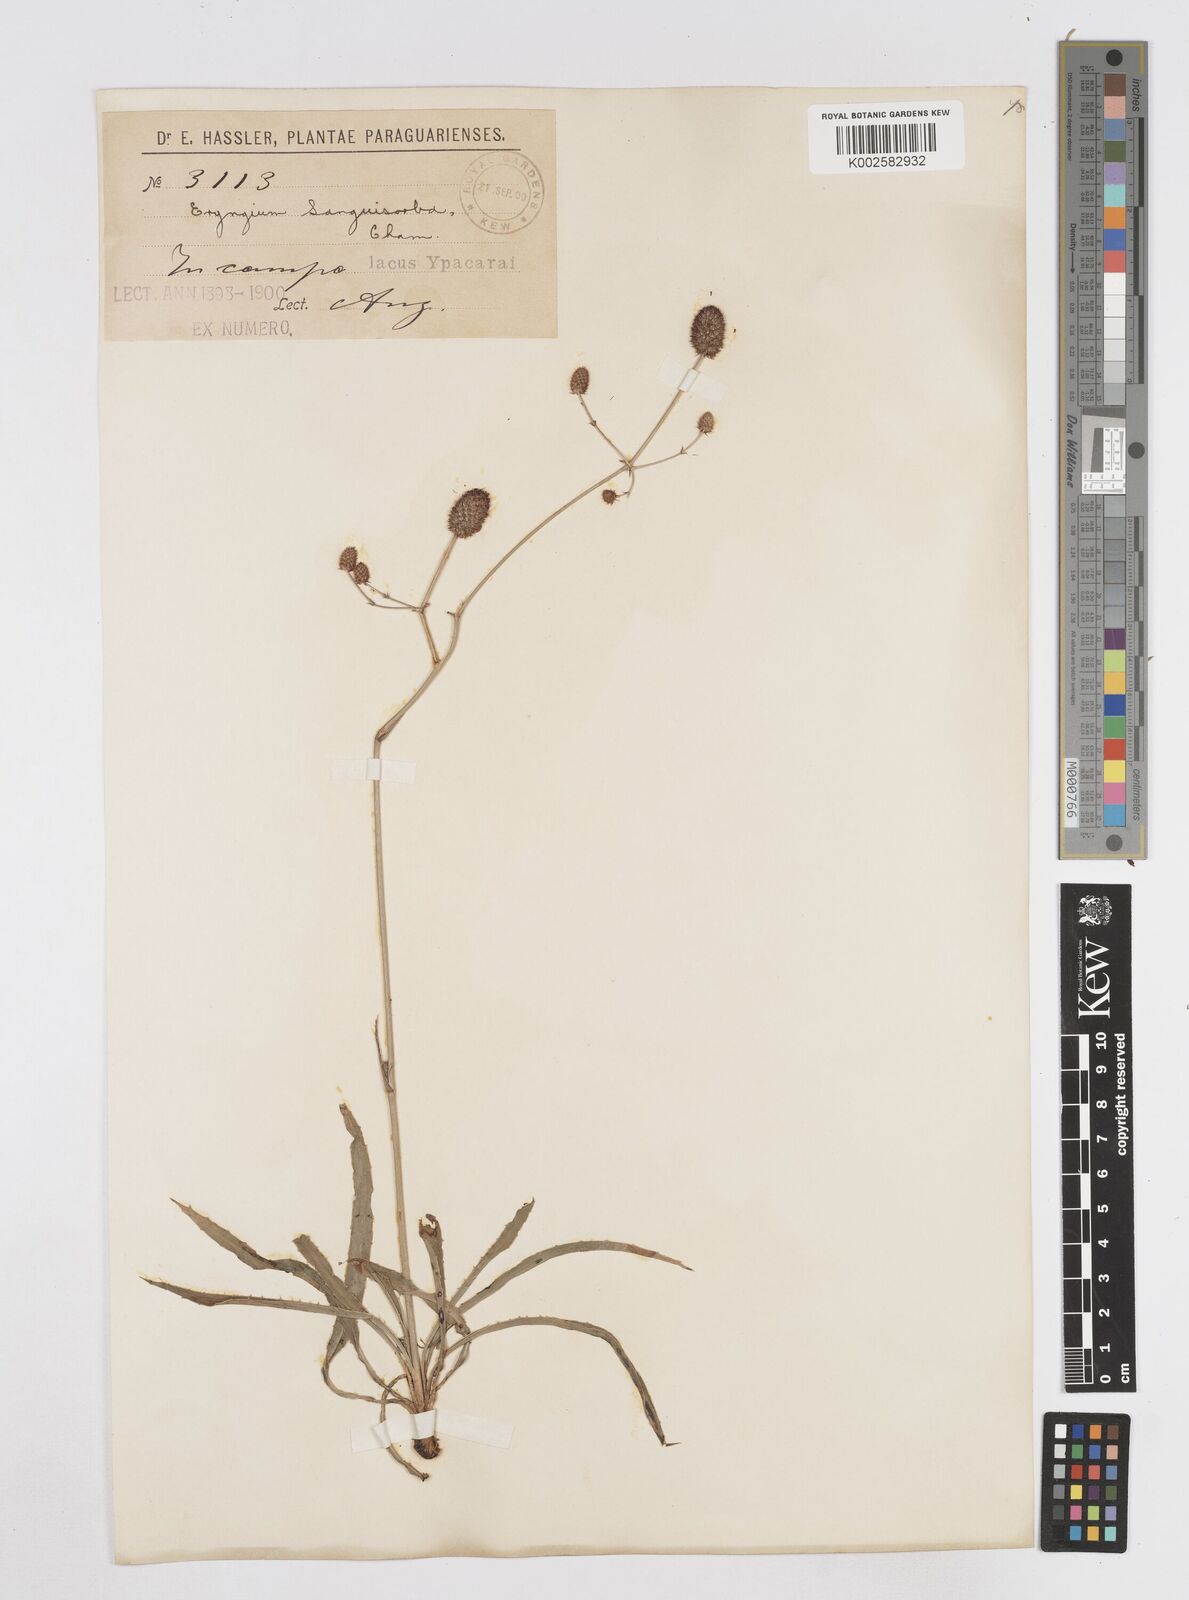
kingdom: Plantae
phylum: Tracheophyta
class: Magnoliopsida
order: Apiales
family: Apiaceae
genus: Eryngium
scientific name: Eryngium sanguisorba
